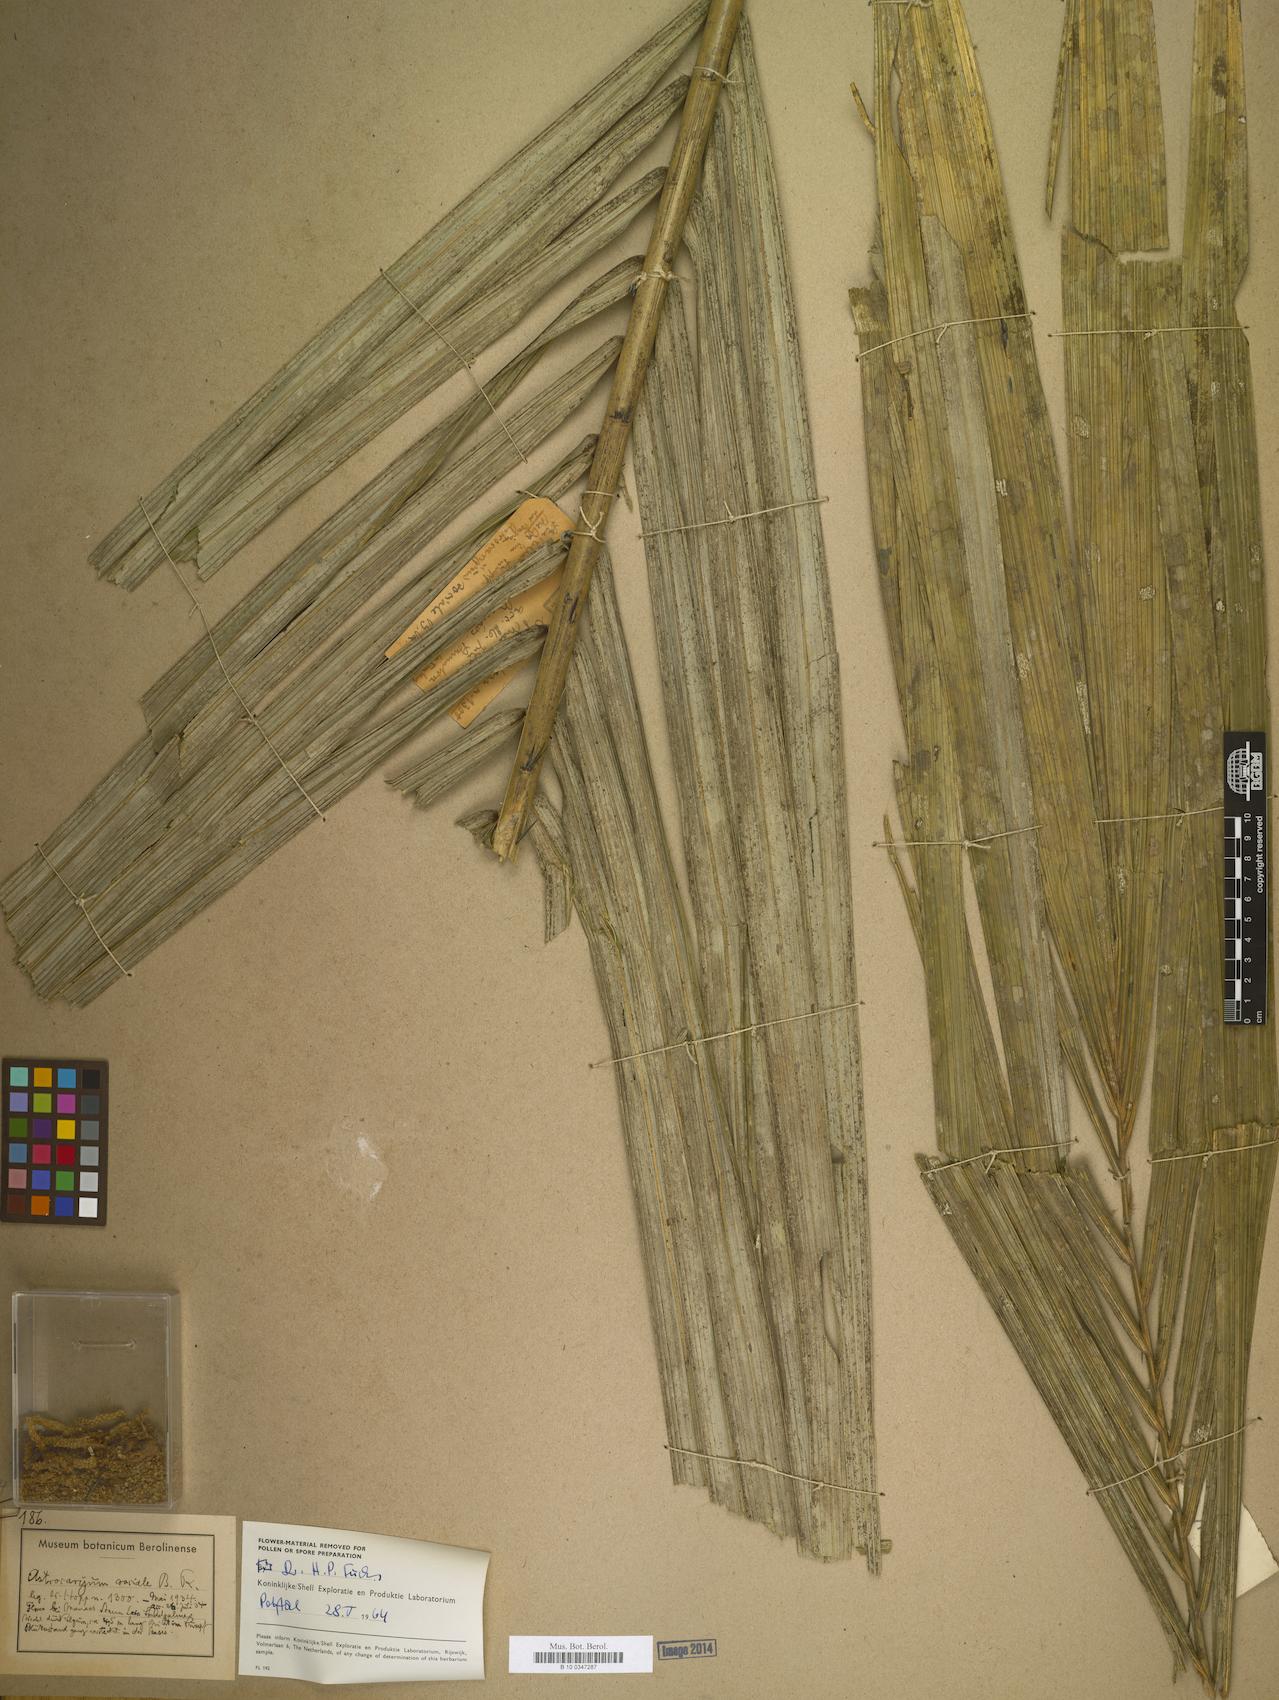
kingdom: Plantae
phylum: Tracheophyta
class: Liliopsida
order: Arecales
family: Arecaceae
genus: Astrocaryum
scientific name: Astrocaryum
